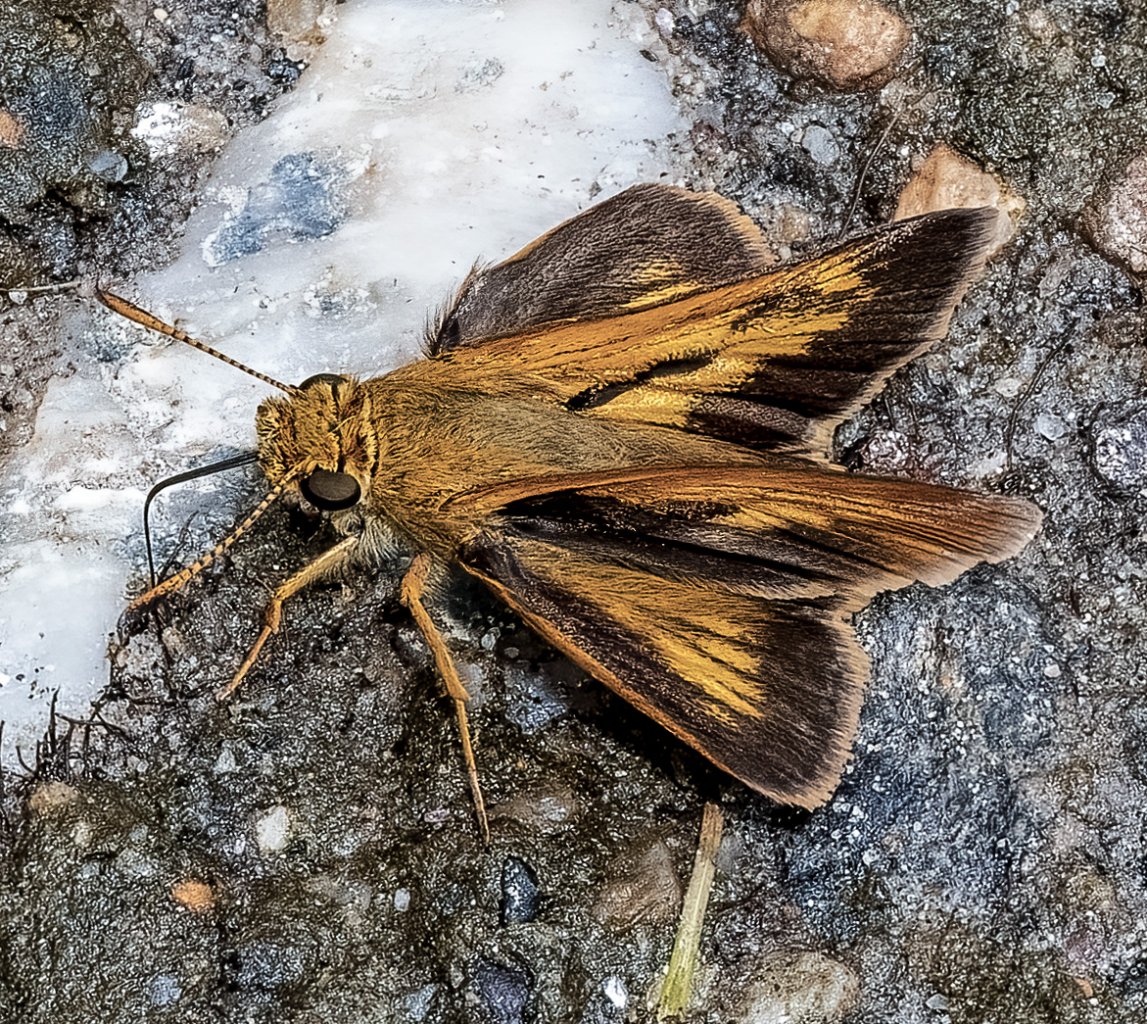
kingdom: Animalia
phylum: Arthropoda
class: Insecta
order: Lepidoptera
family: Hesperiidae
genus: Euphyes
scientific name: Euphyes conspicua
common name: Black Dash
